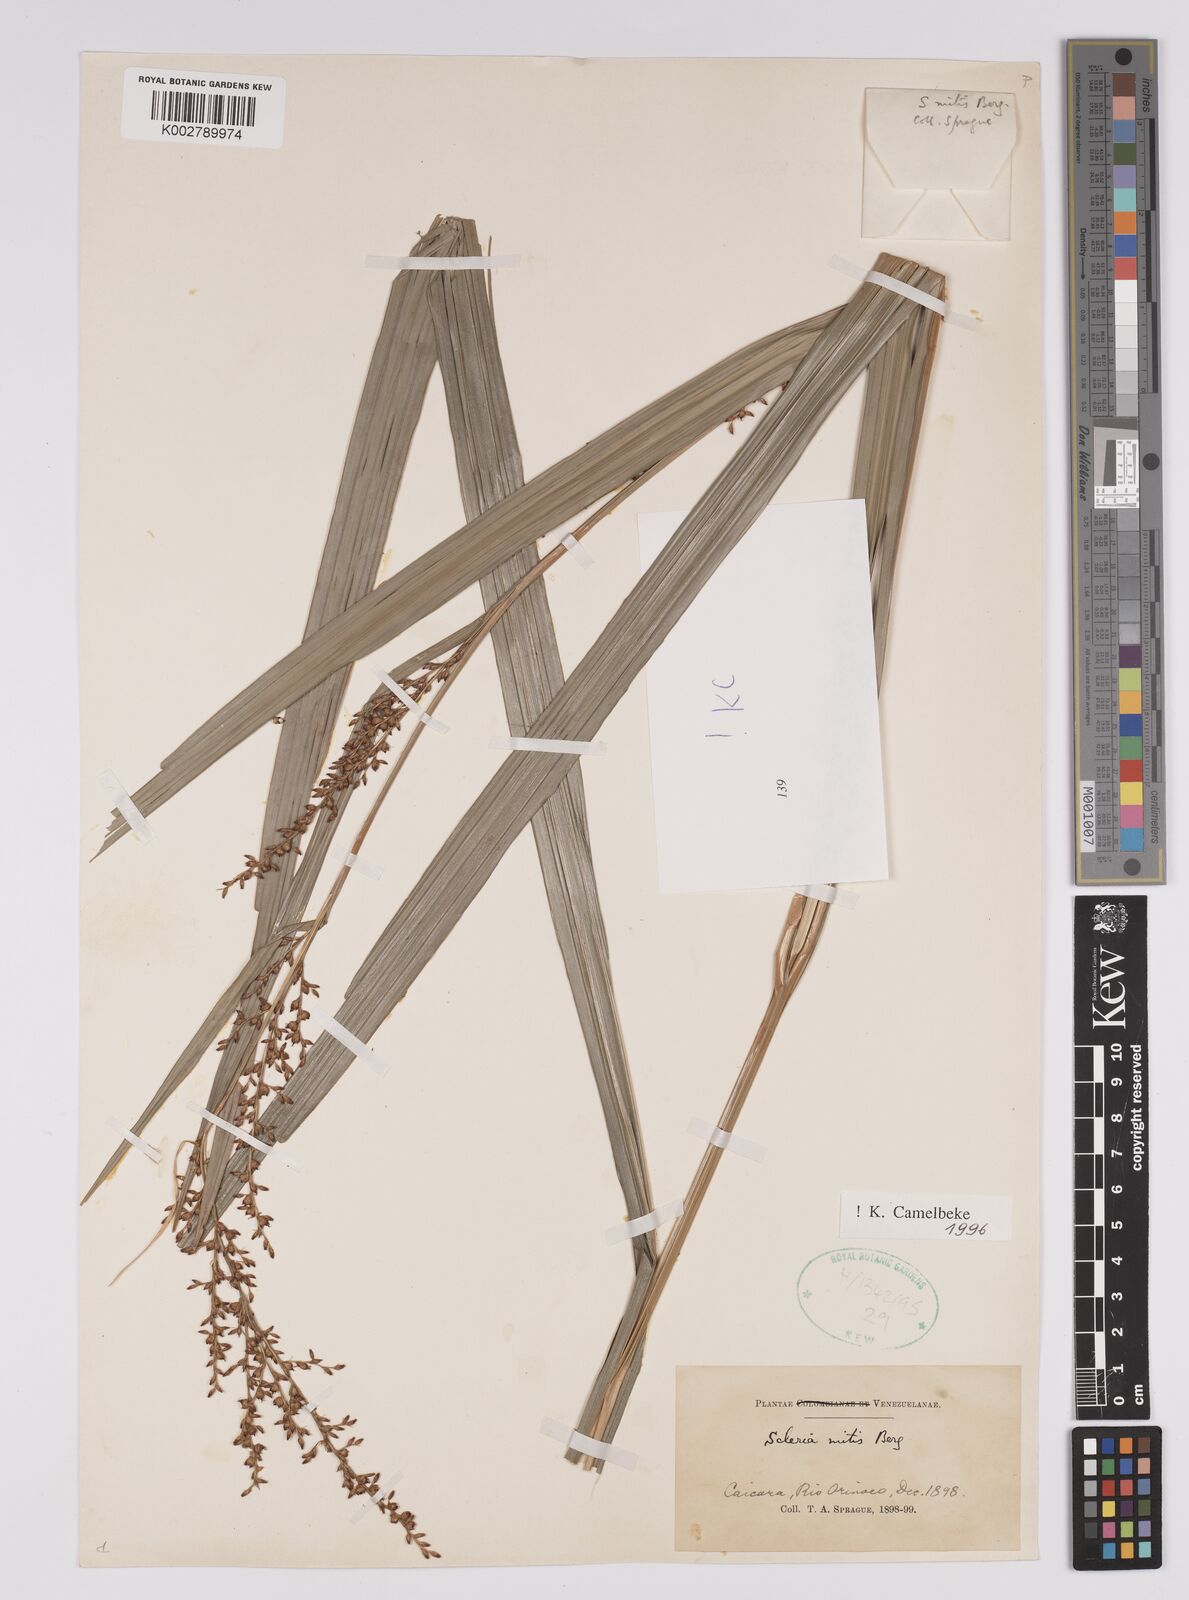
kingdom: Plantae
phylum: Tracheophyta
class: Liliopsida
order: Poales
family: Cyperaceae
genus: Scleria
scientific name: Scleria mitis
